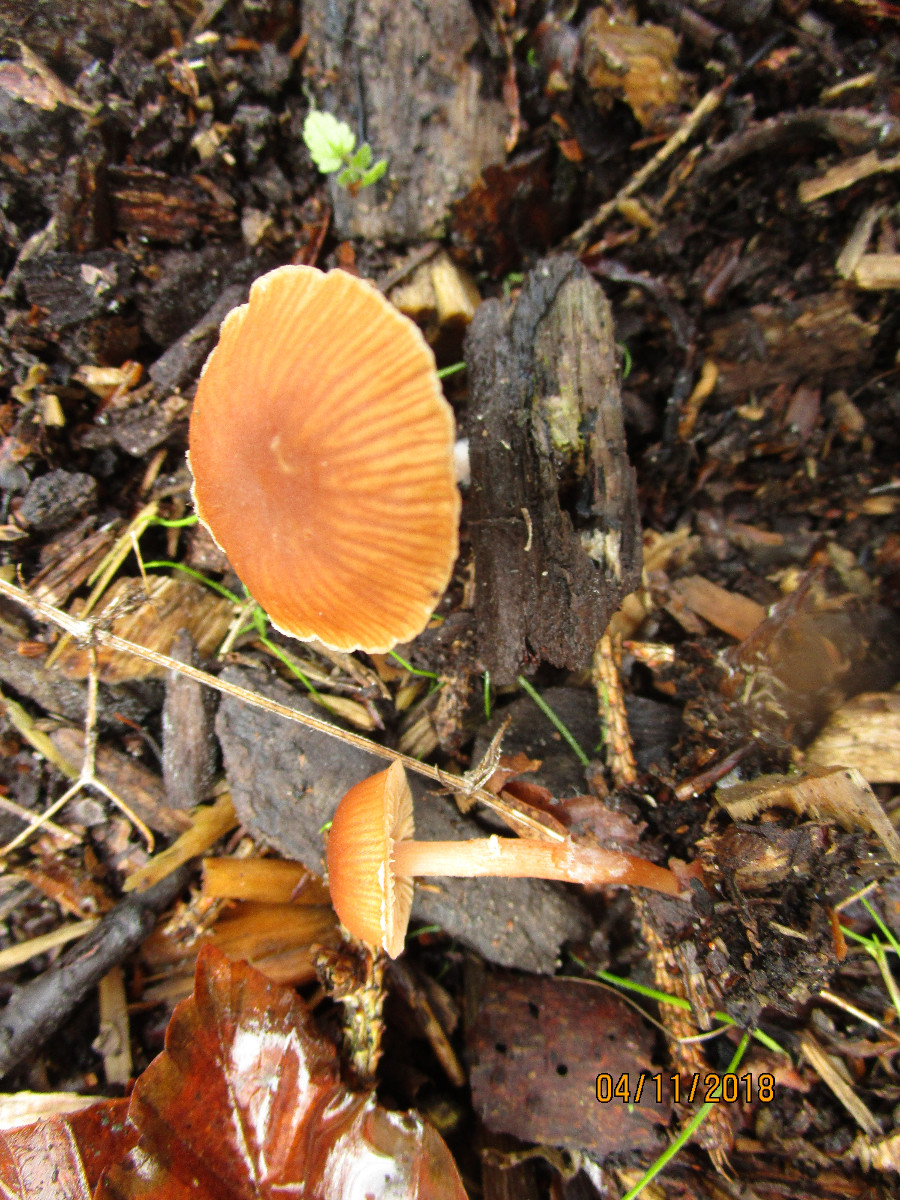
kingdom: Fungi
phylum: Basidiomycota
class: Agaricomycetes
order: Agaricales
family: Tubariaceae
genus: Tubaria
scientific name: Tubaria furfuracea
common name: kliddet fnughat
